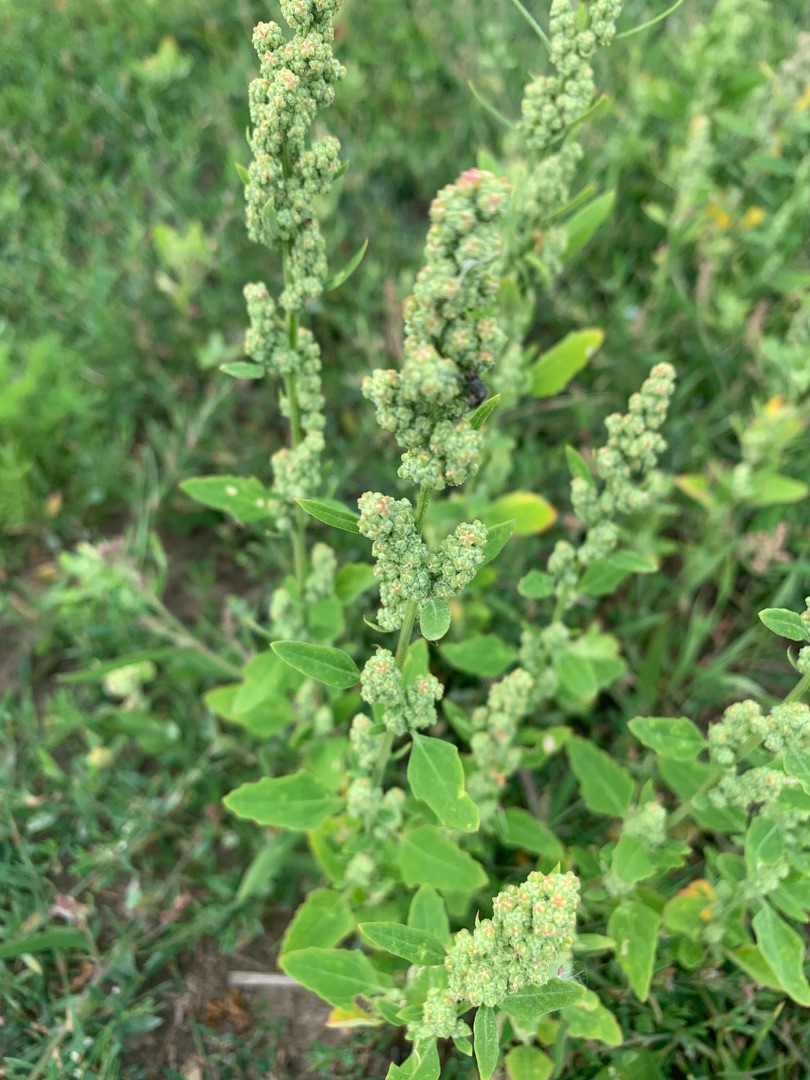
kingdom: Plantae
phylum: Tracheophyta
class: Magnoliopsida
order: Caryophyllales
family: Amaranthaceae
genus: Chenopodium
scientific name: Chenopodium album
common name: Hvidmelet gåsefod
